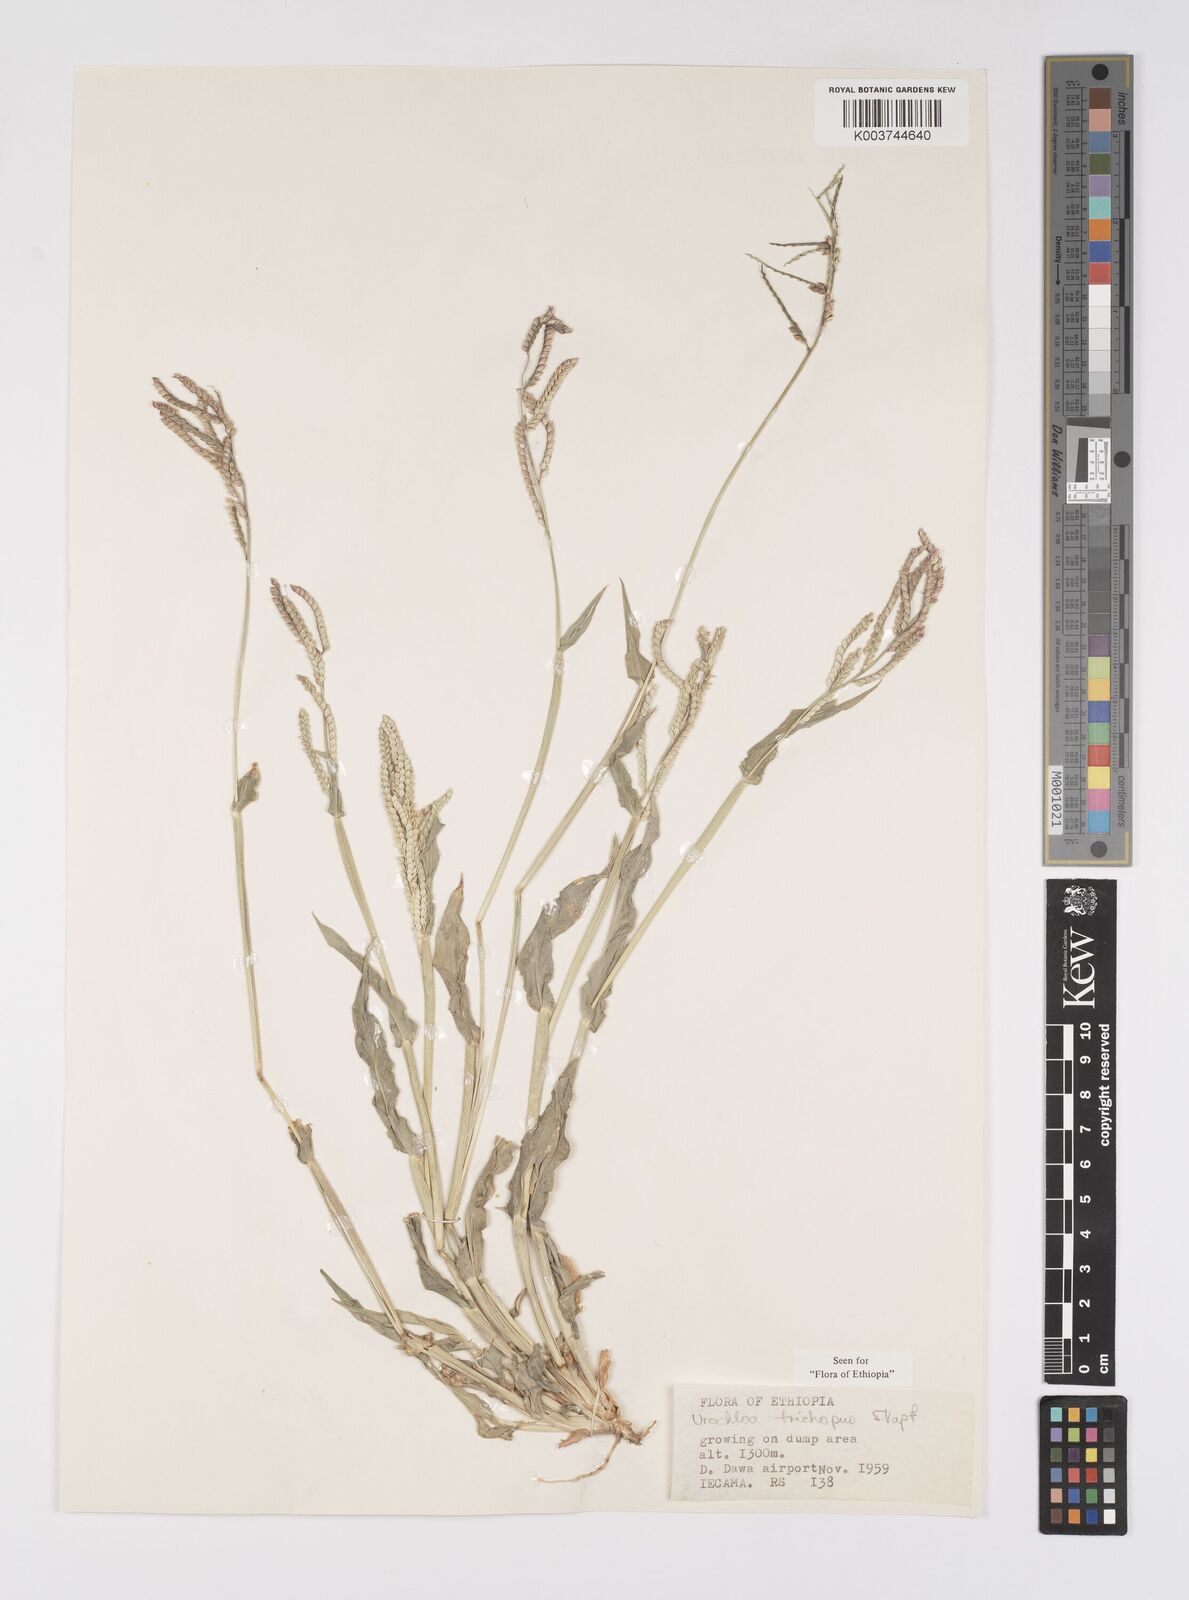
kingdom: Plantae
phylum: Tracheophyta
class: Liliopsida
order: Poales
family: Poaceae
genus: Urochloa
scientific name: Urochloa trichopus
